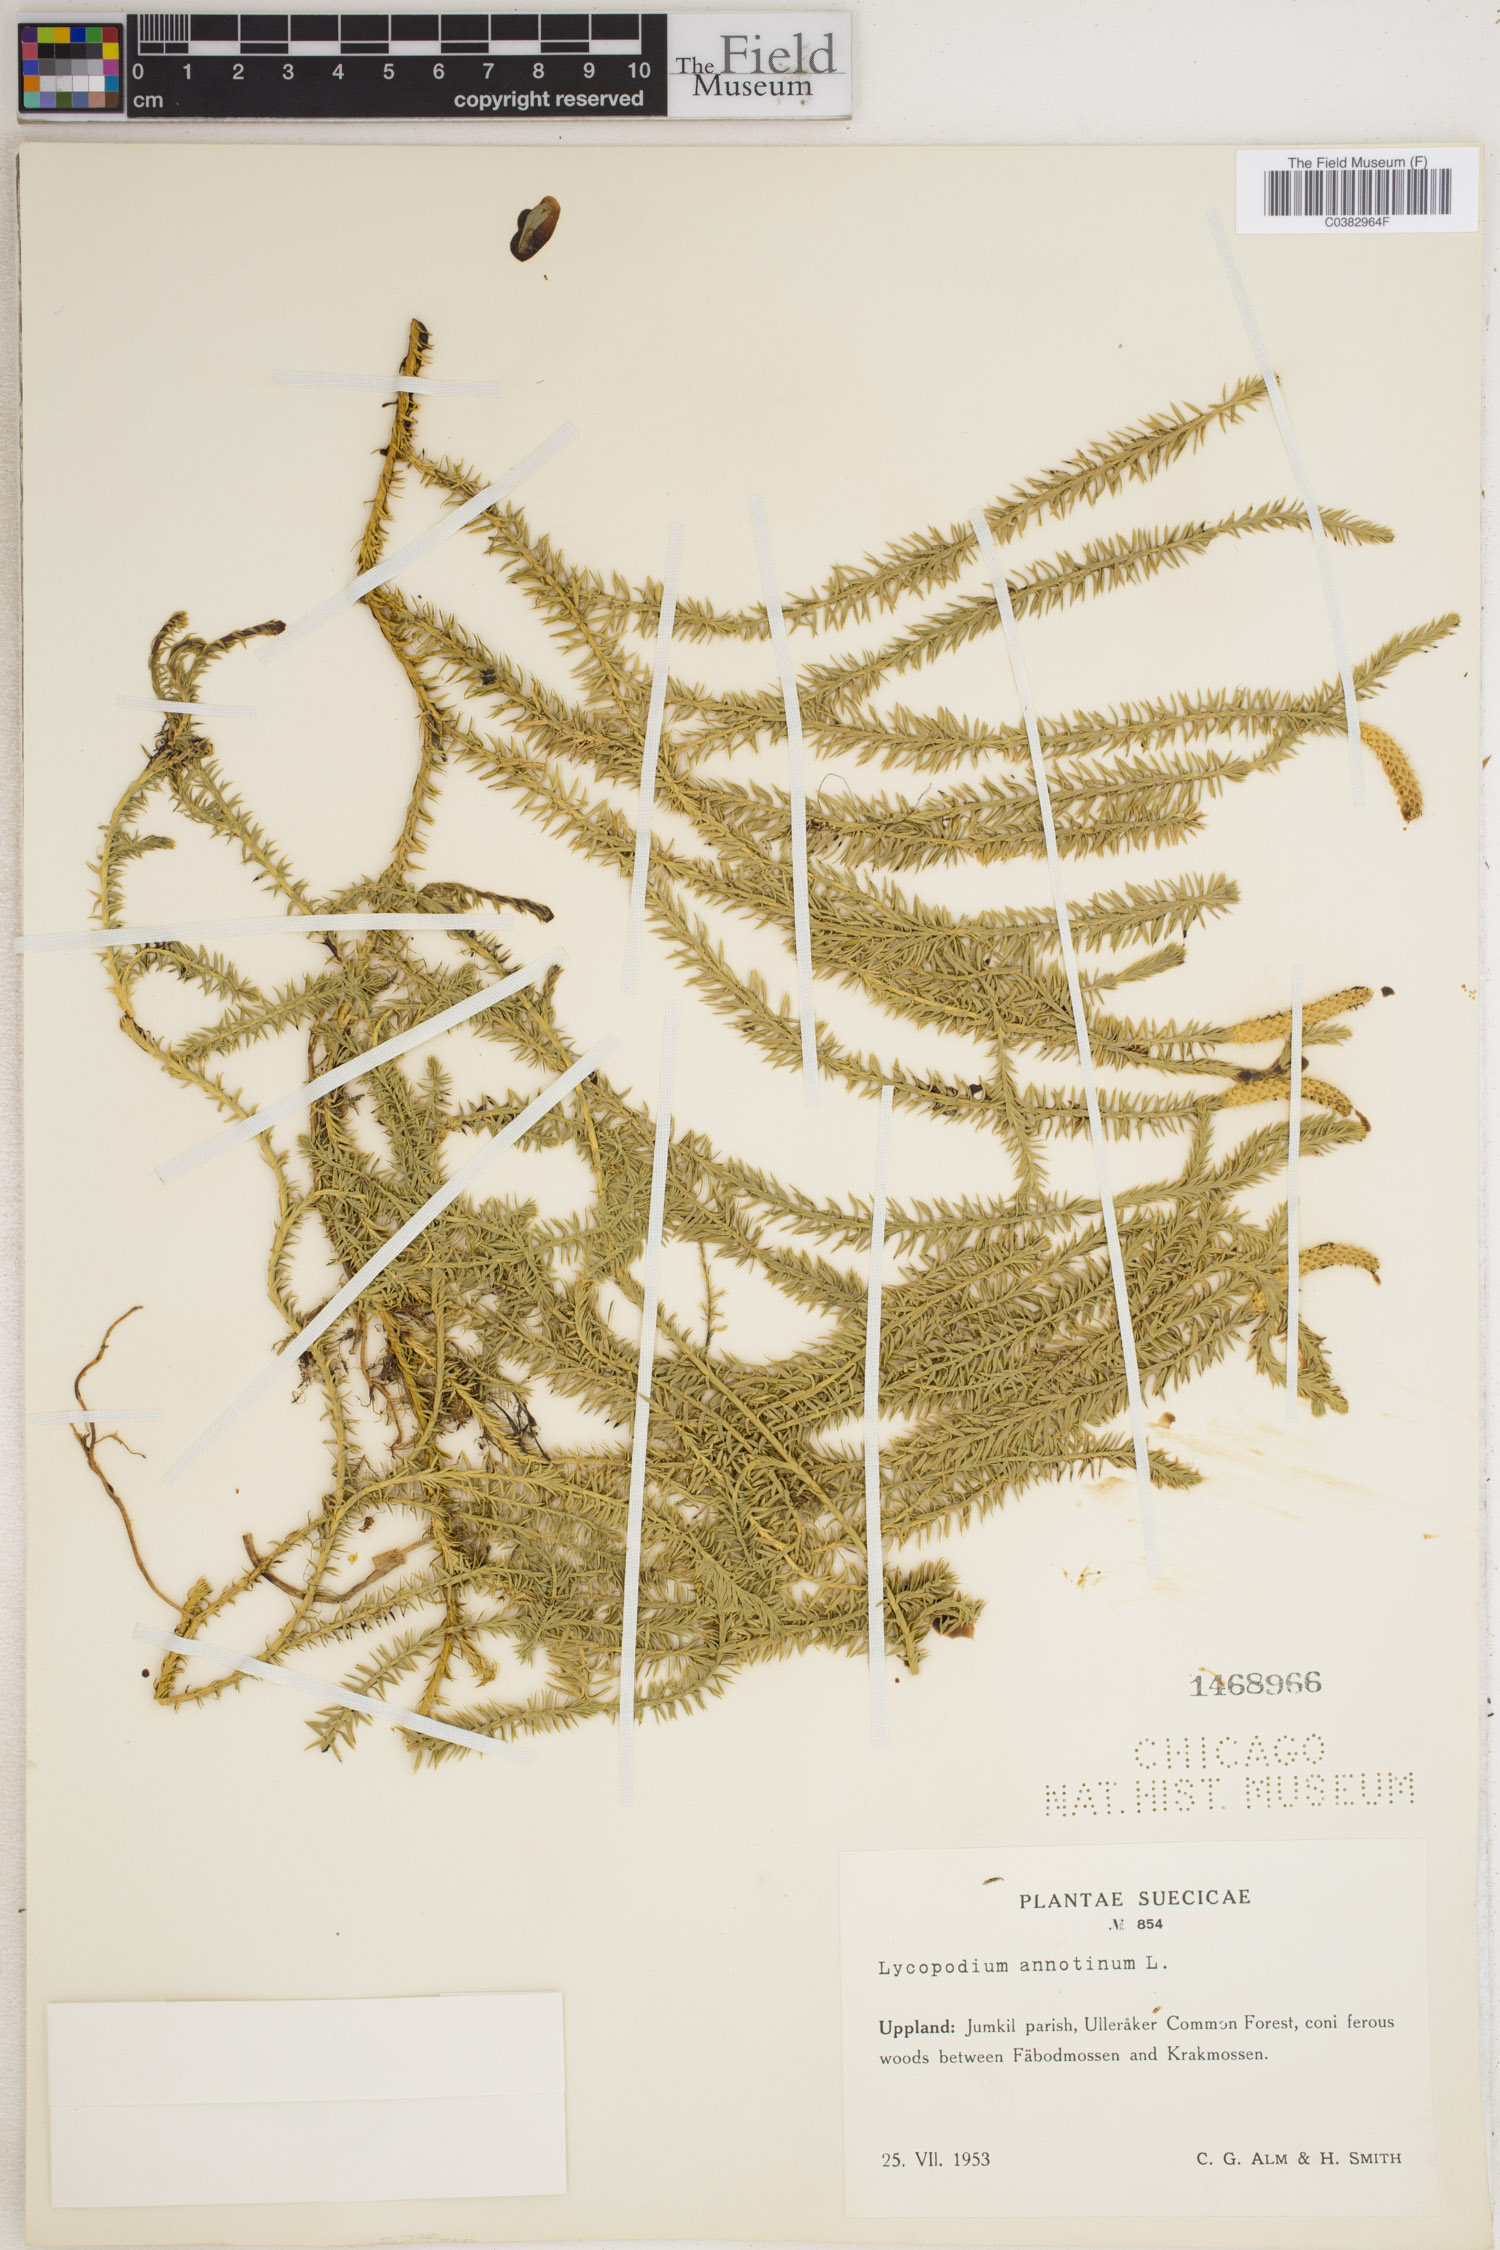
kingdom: Plantae
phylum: Tracheophyta
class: Lycopodiopsida
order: Lycopodiales
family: Lycopodiaceae
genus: Spinulum
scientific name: Spinulum annotinum
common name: Interrupted club-moss
